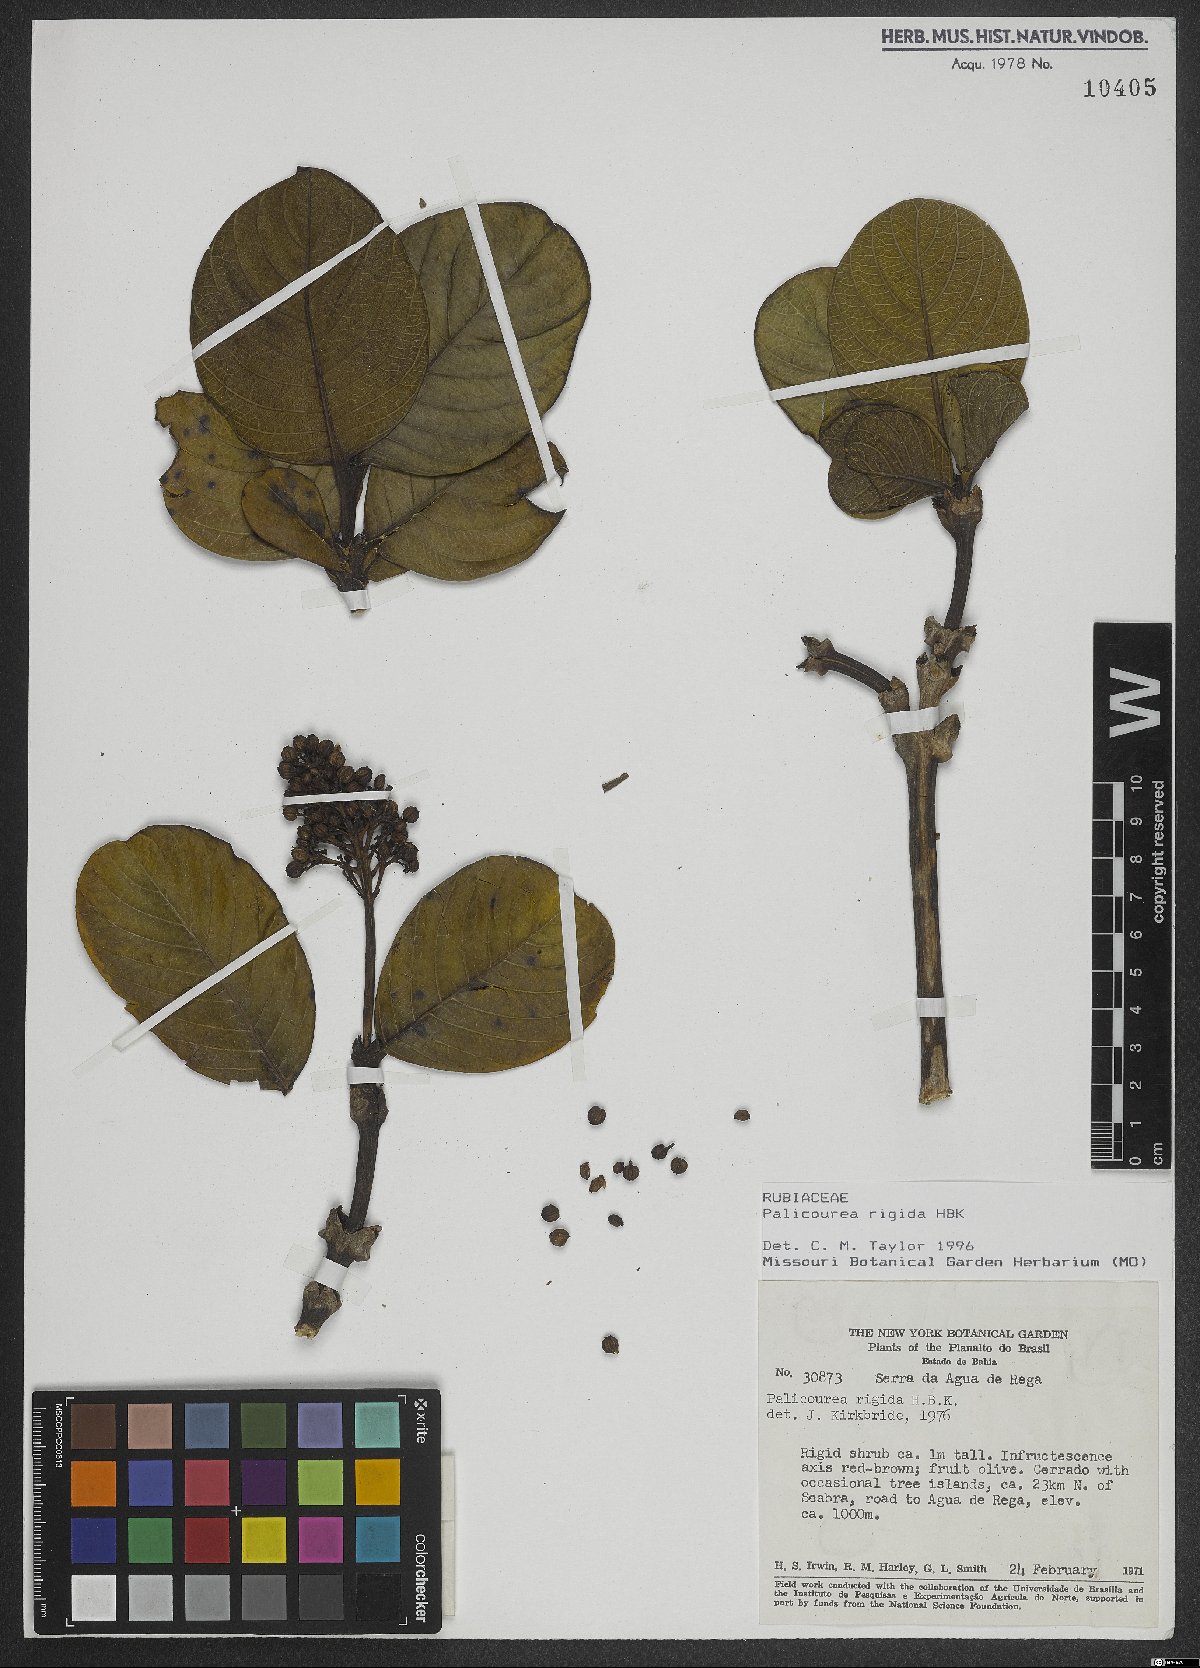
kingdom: Plantae
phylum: Tracheophyta
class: Magnoliopsida
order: Gentianales
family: Rubiaceae
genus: Palicourea
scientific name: Palicourea rigida
